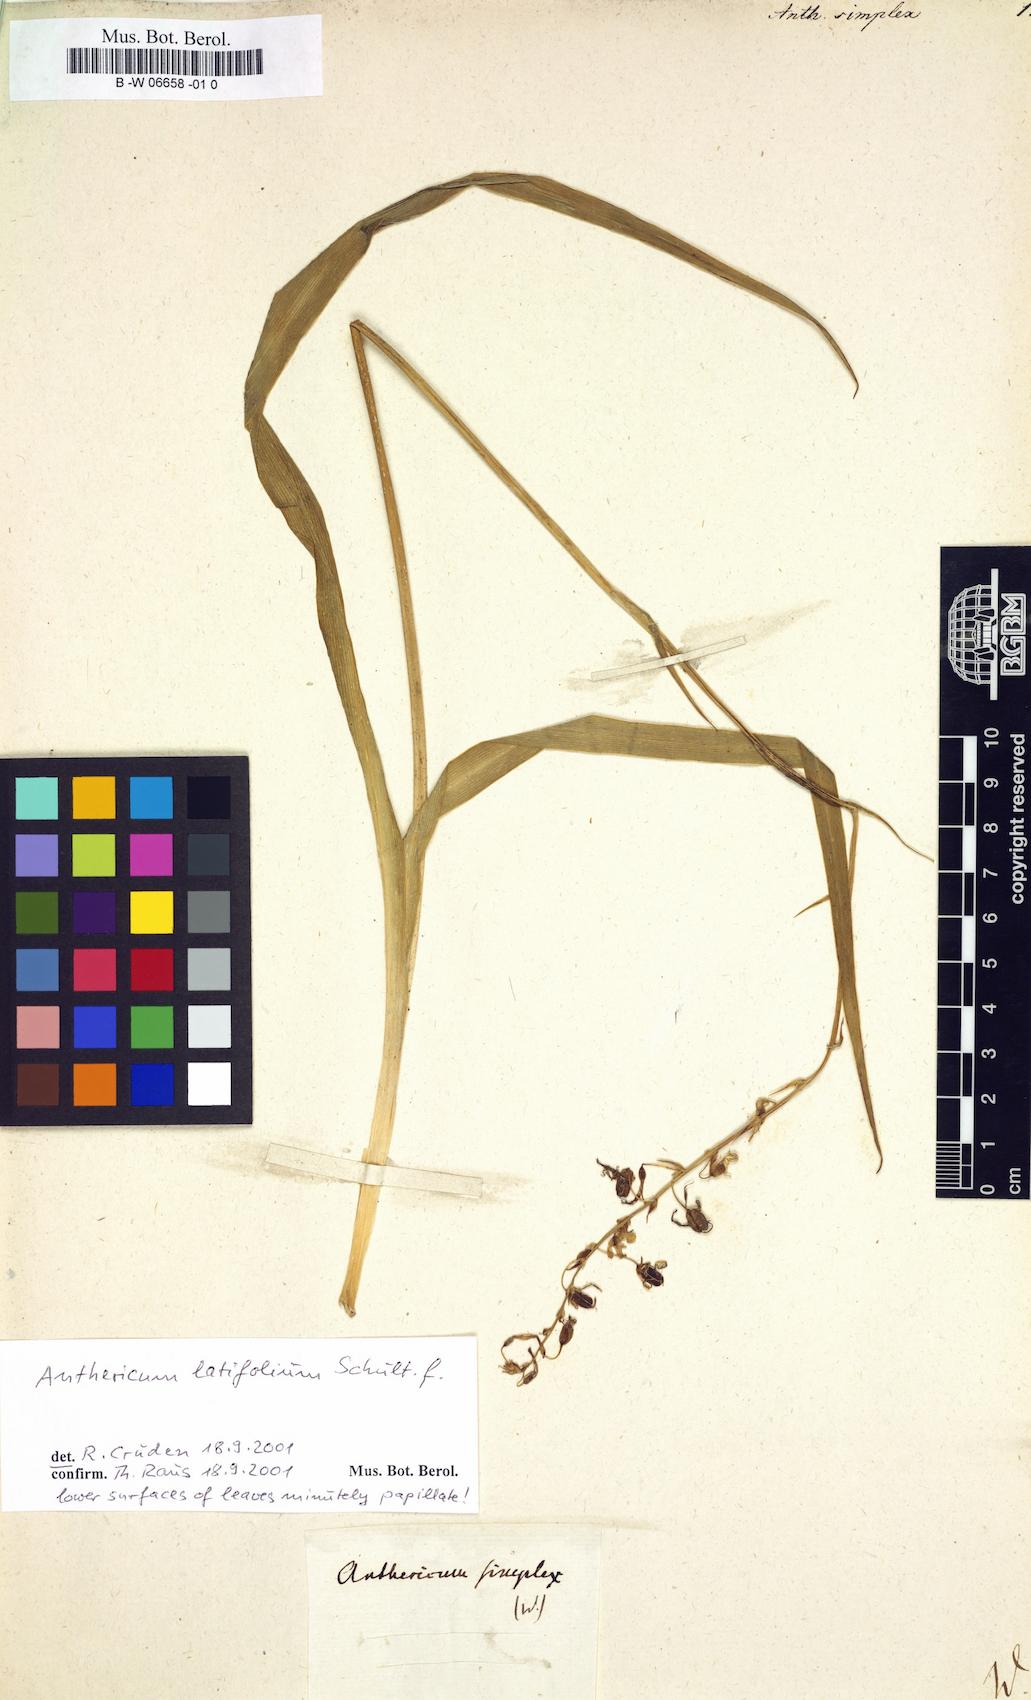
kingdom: Plantae
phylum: Tracheophyta
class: Liliopsida
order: Asparagales
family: Asparagaceae
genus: Anthericum
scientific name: Anthericum simplex
